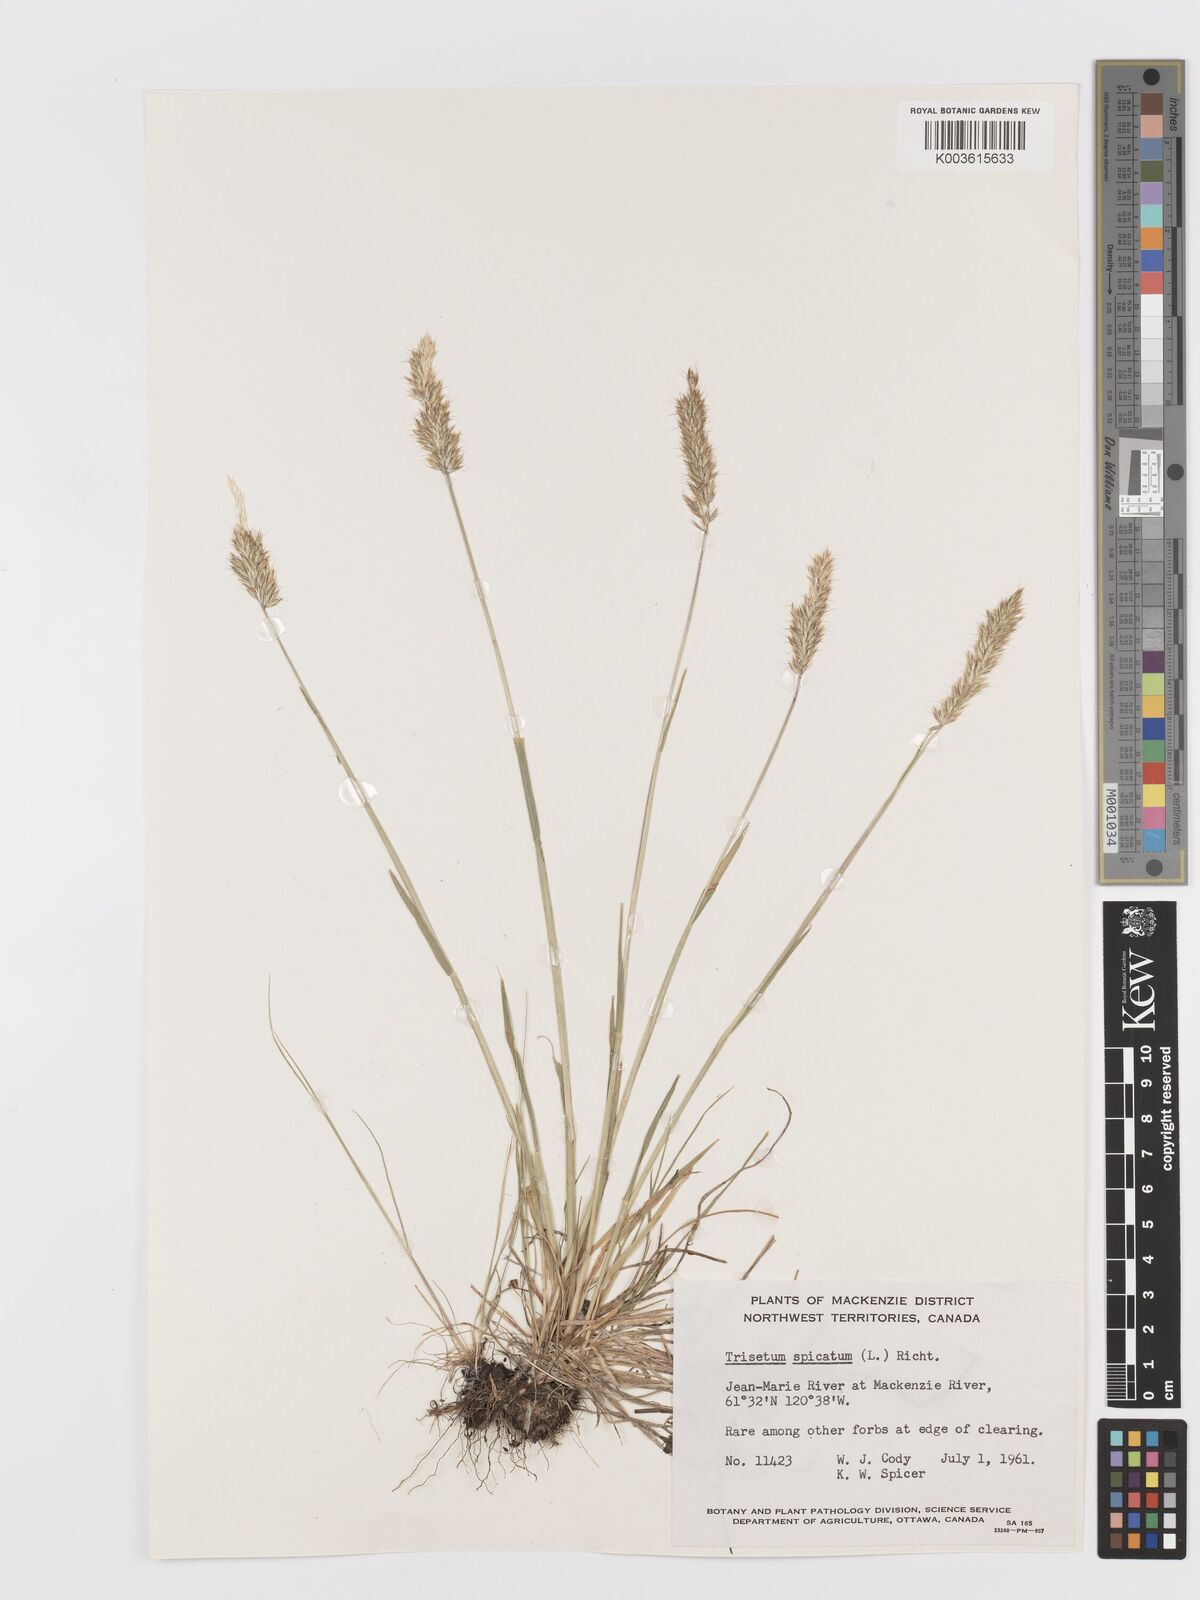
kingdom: Plantae
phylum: Tracheophyta
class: Liliopsida
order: Poales
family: Poaceae
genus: Koeleria
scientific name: Koeleria spicata
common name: Mountain trisetum
